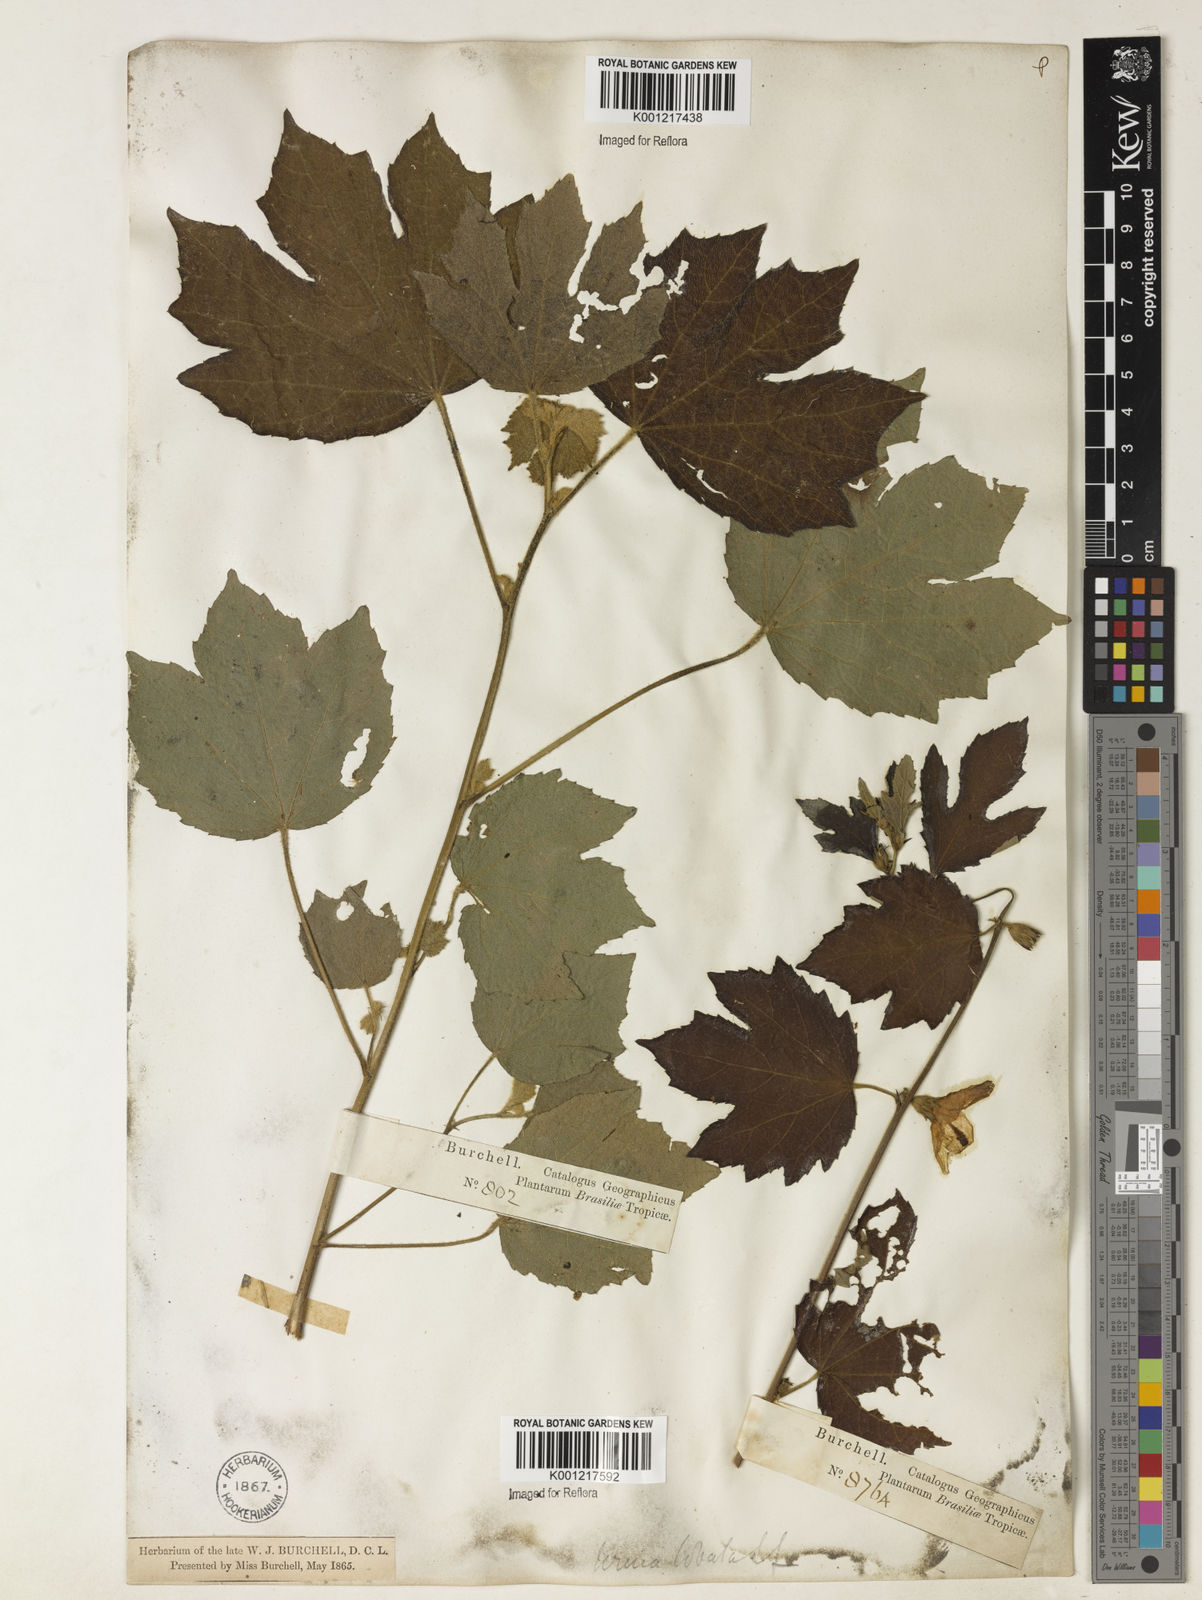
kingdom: Plantae
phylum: Tracheophyta
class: Magnoliopsida
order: Malvales
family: Malvaceae
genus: Urena
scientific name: Urena lobata
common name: Caesarweed
